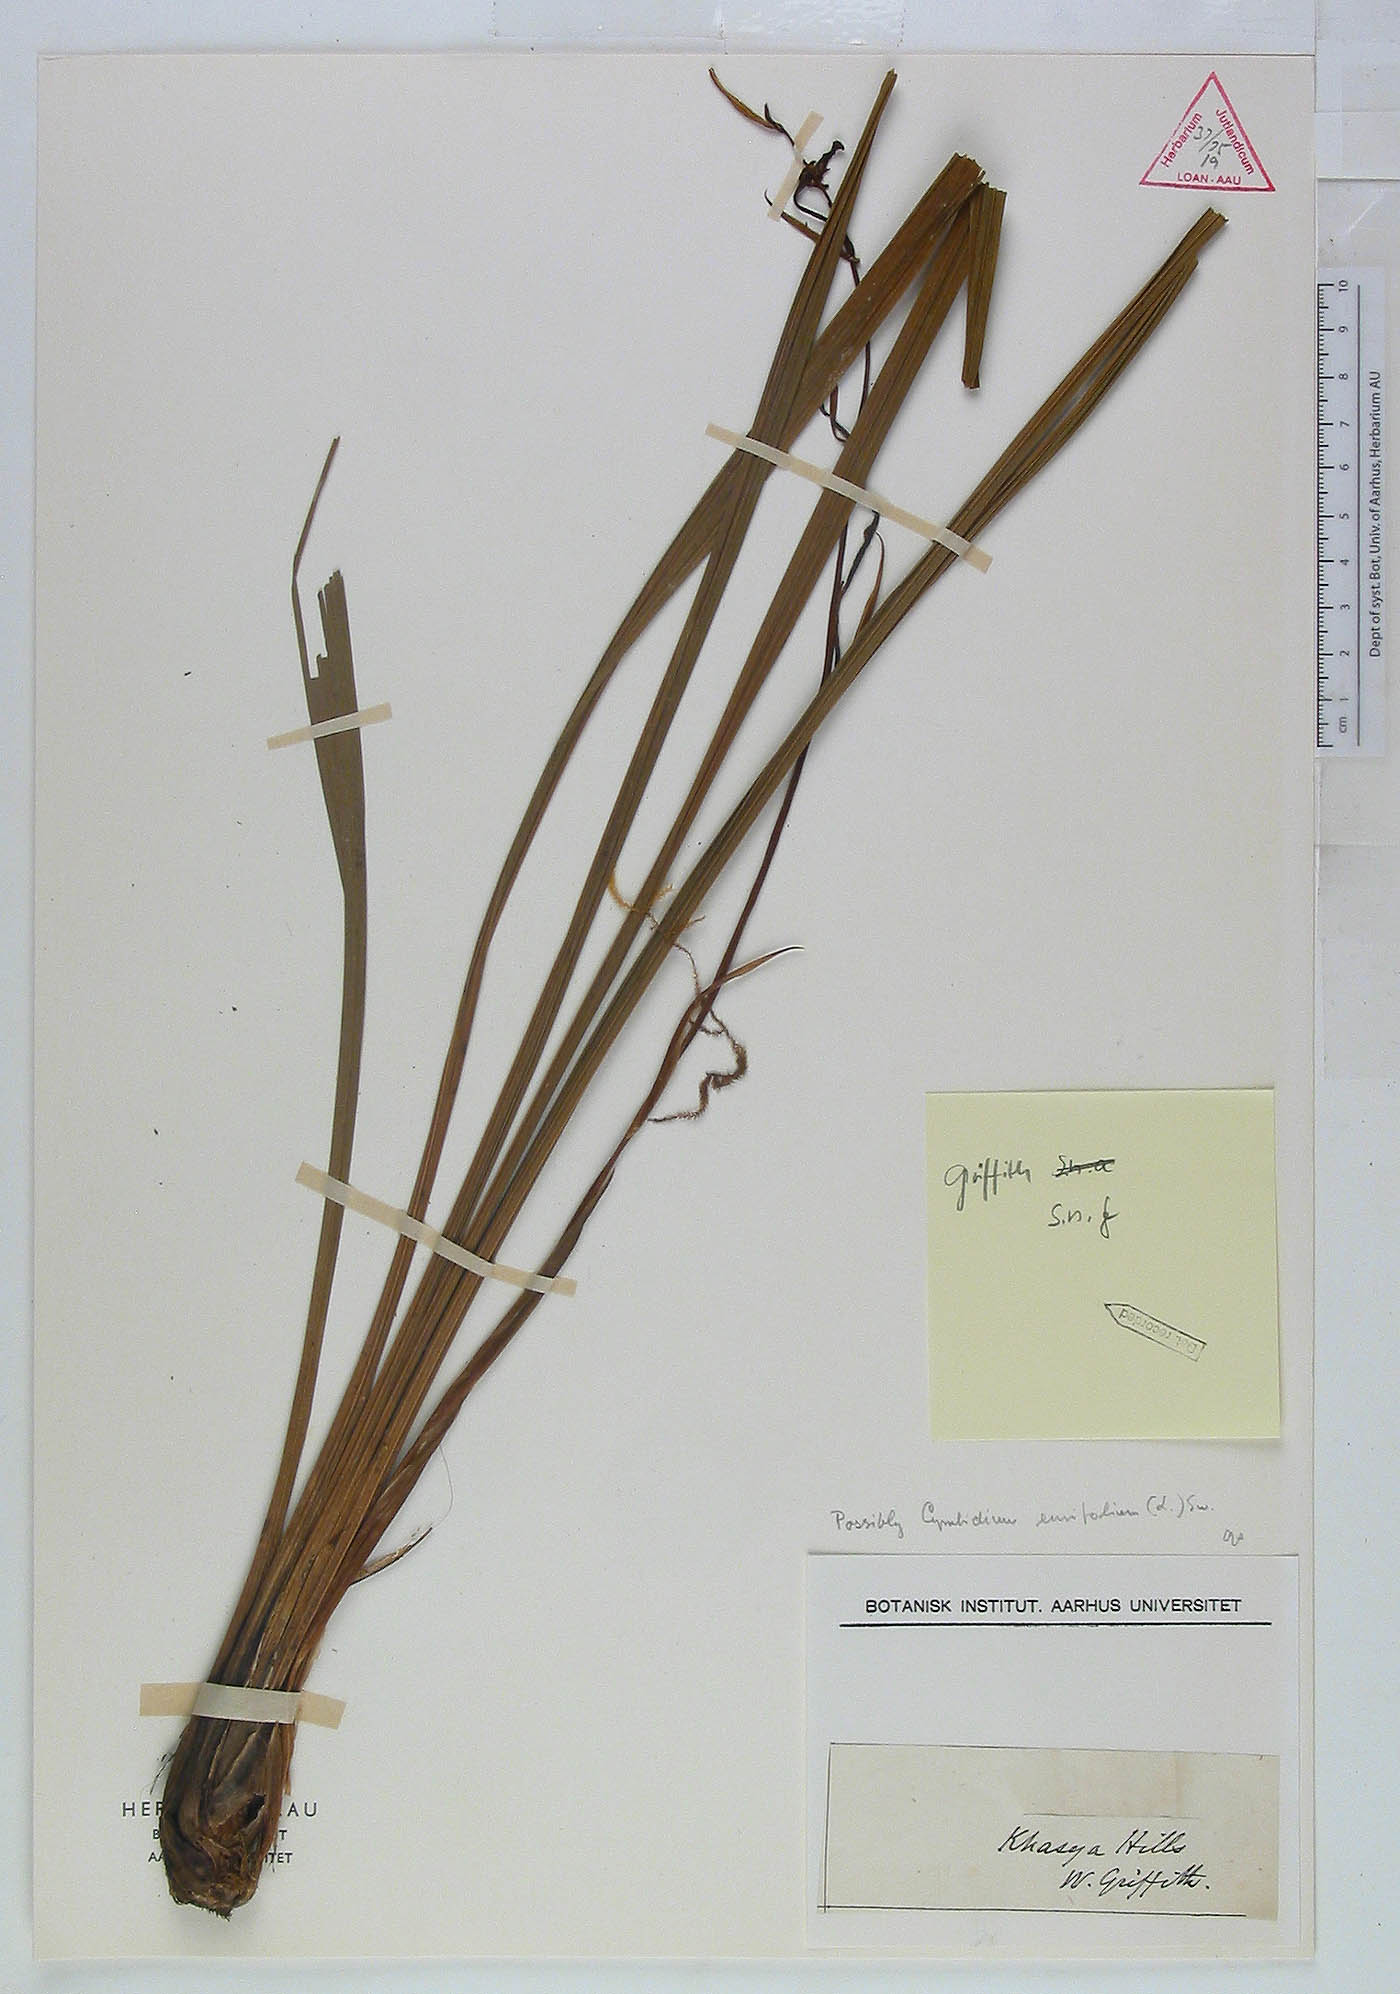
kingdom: Plantae
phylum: Tracheophyta
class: Liliopsida
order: Asparagales
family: Orchidaceae
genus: Cymbidium
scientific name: Cymbidium ensifolium
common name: Fukien-orchid
